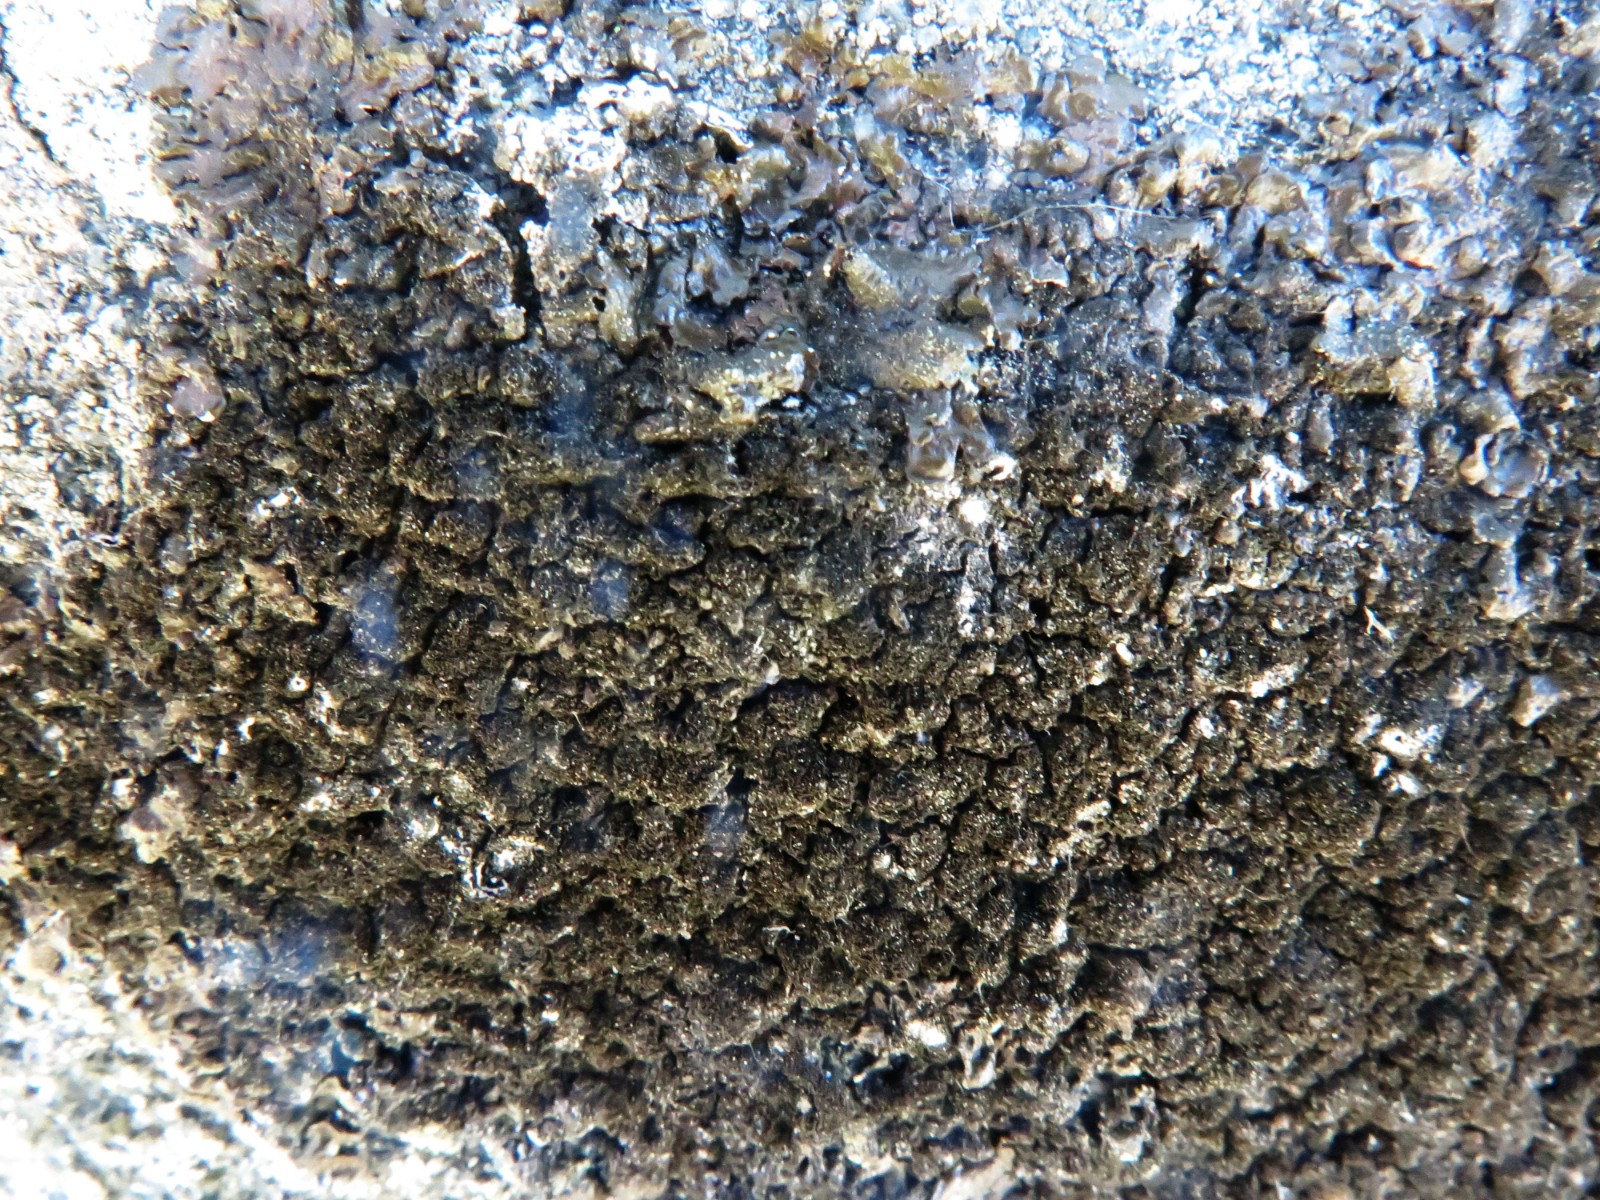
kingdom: Fungi
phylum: Ascomycota
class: Lecanoromycetes
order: Lecanorales
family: Parmeliaceae
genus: Melanelixia
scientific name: Melanelixia fuliginosa
